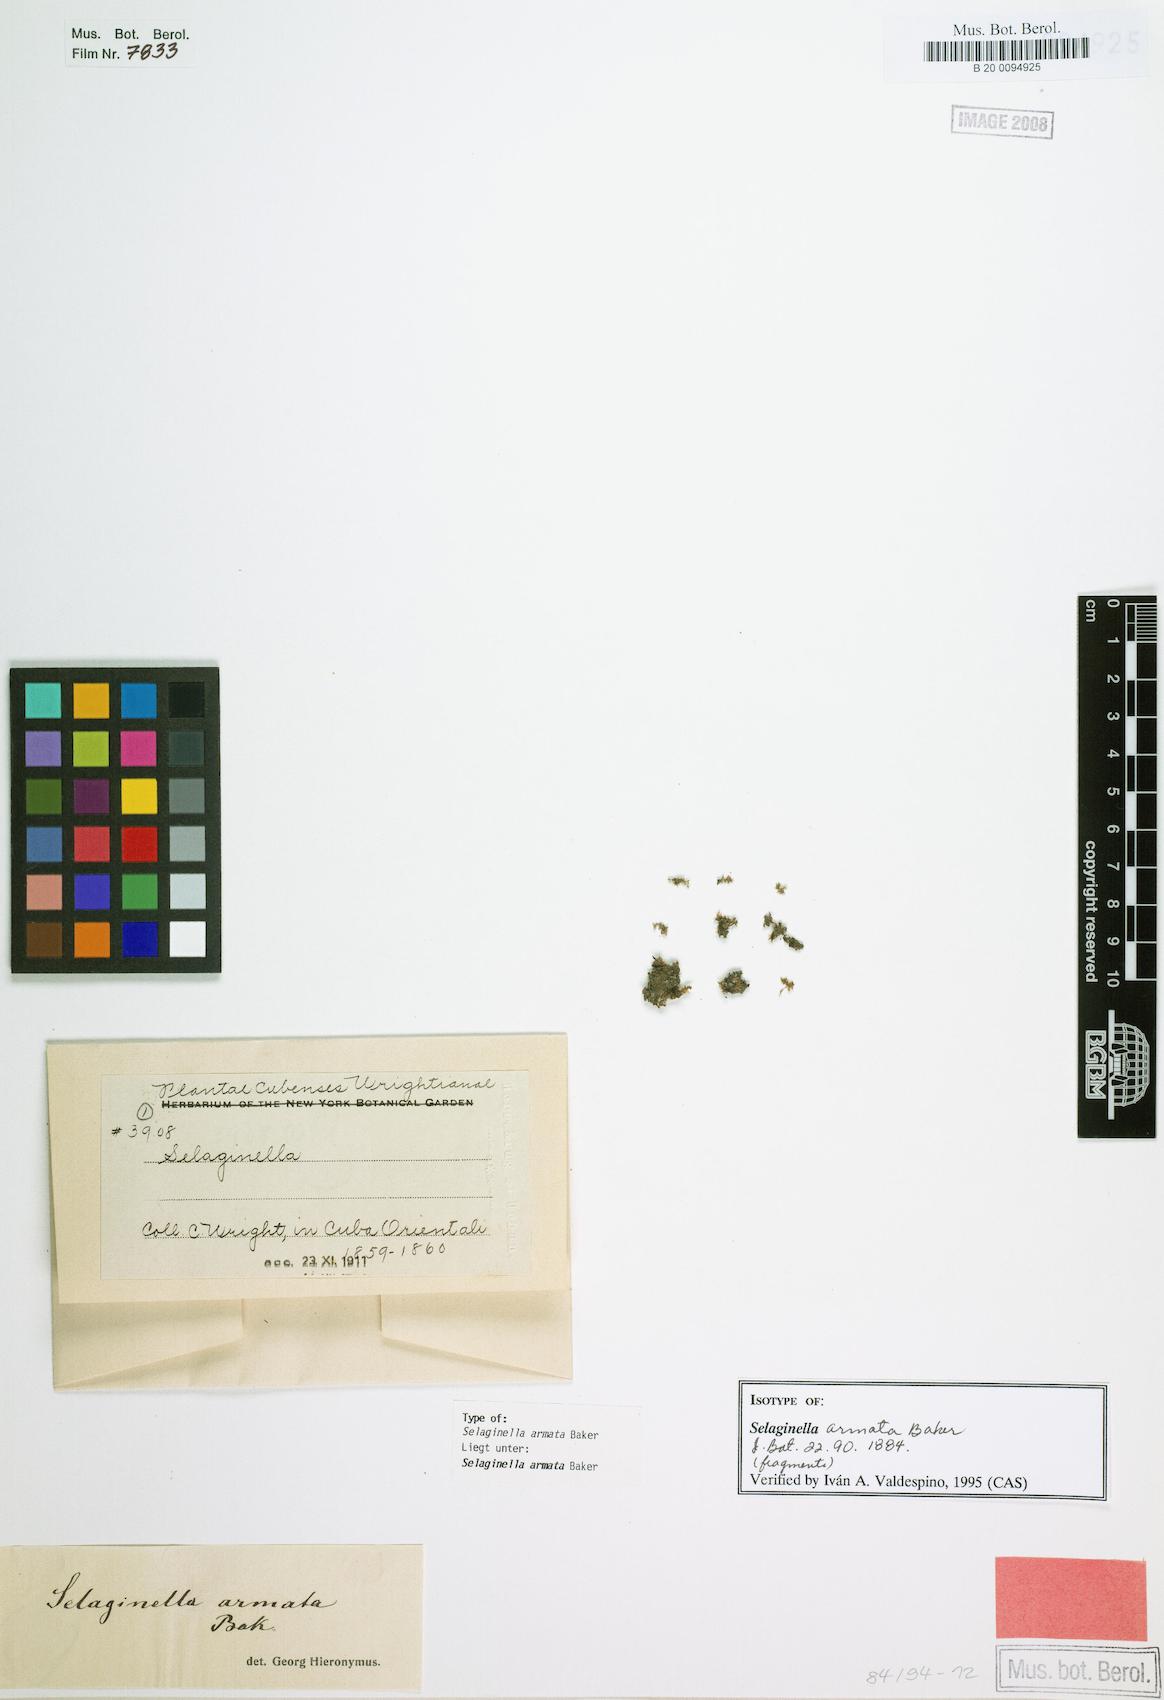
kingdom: Plantae
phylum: Tracheophyta
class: Lycopodiopsida
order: Selaginellales
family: Selaginellaceae
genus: Selaginella
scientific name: Selaginella armata
